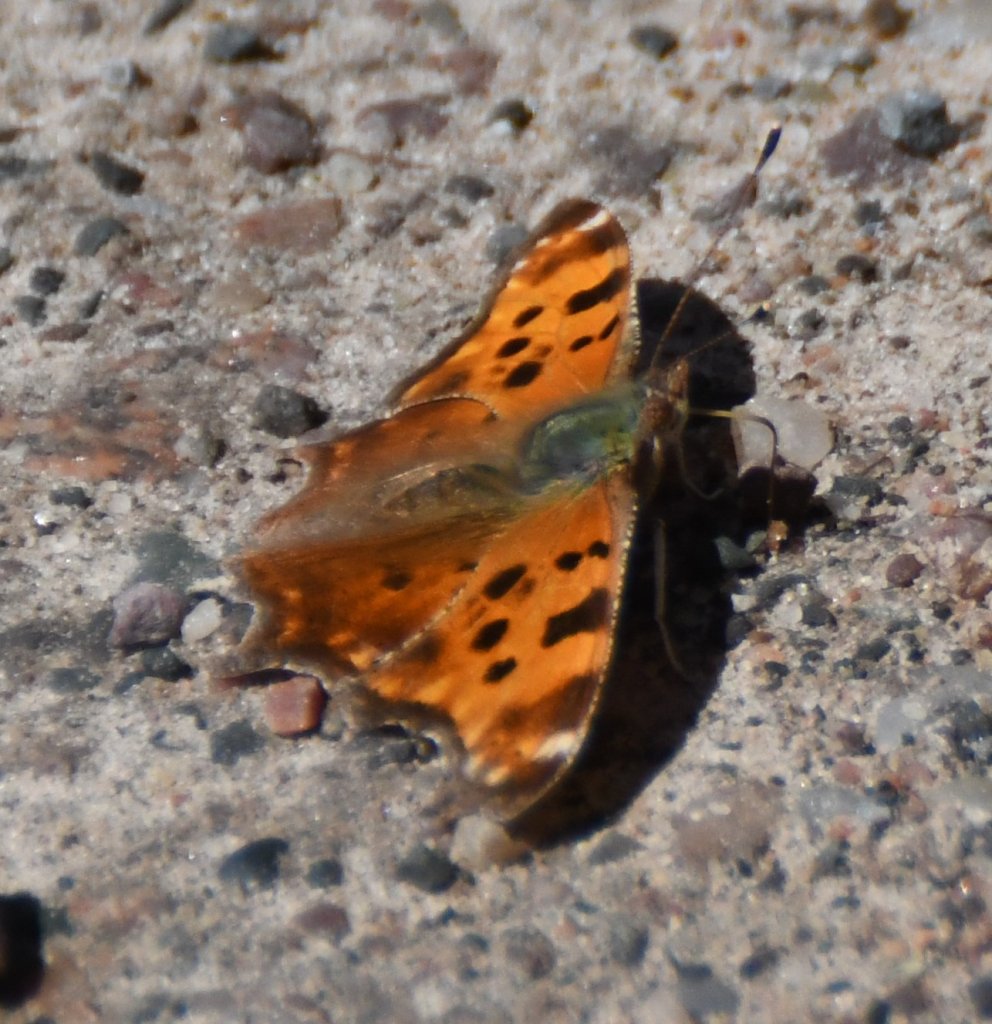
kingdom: Animalia
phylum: Arthropoda
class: Insecta
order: Lepidoptera
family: Nymphalidae
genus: Polygonia
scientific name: Polygonia comma
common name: Eastern Comma
